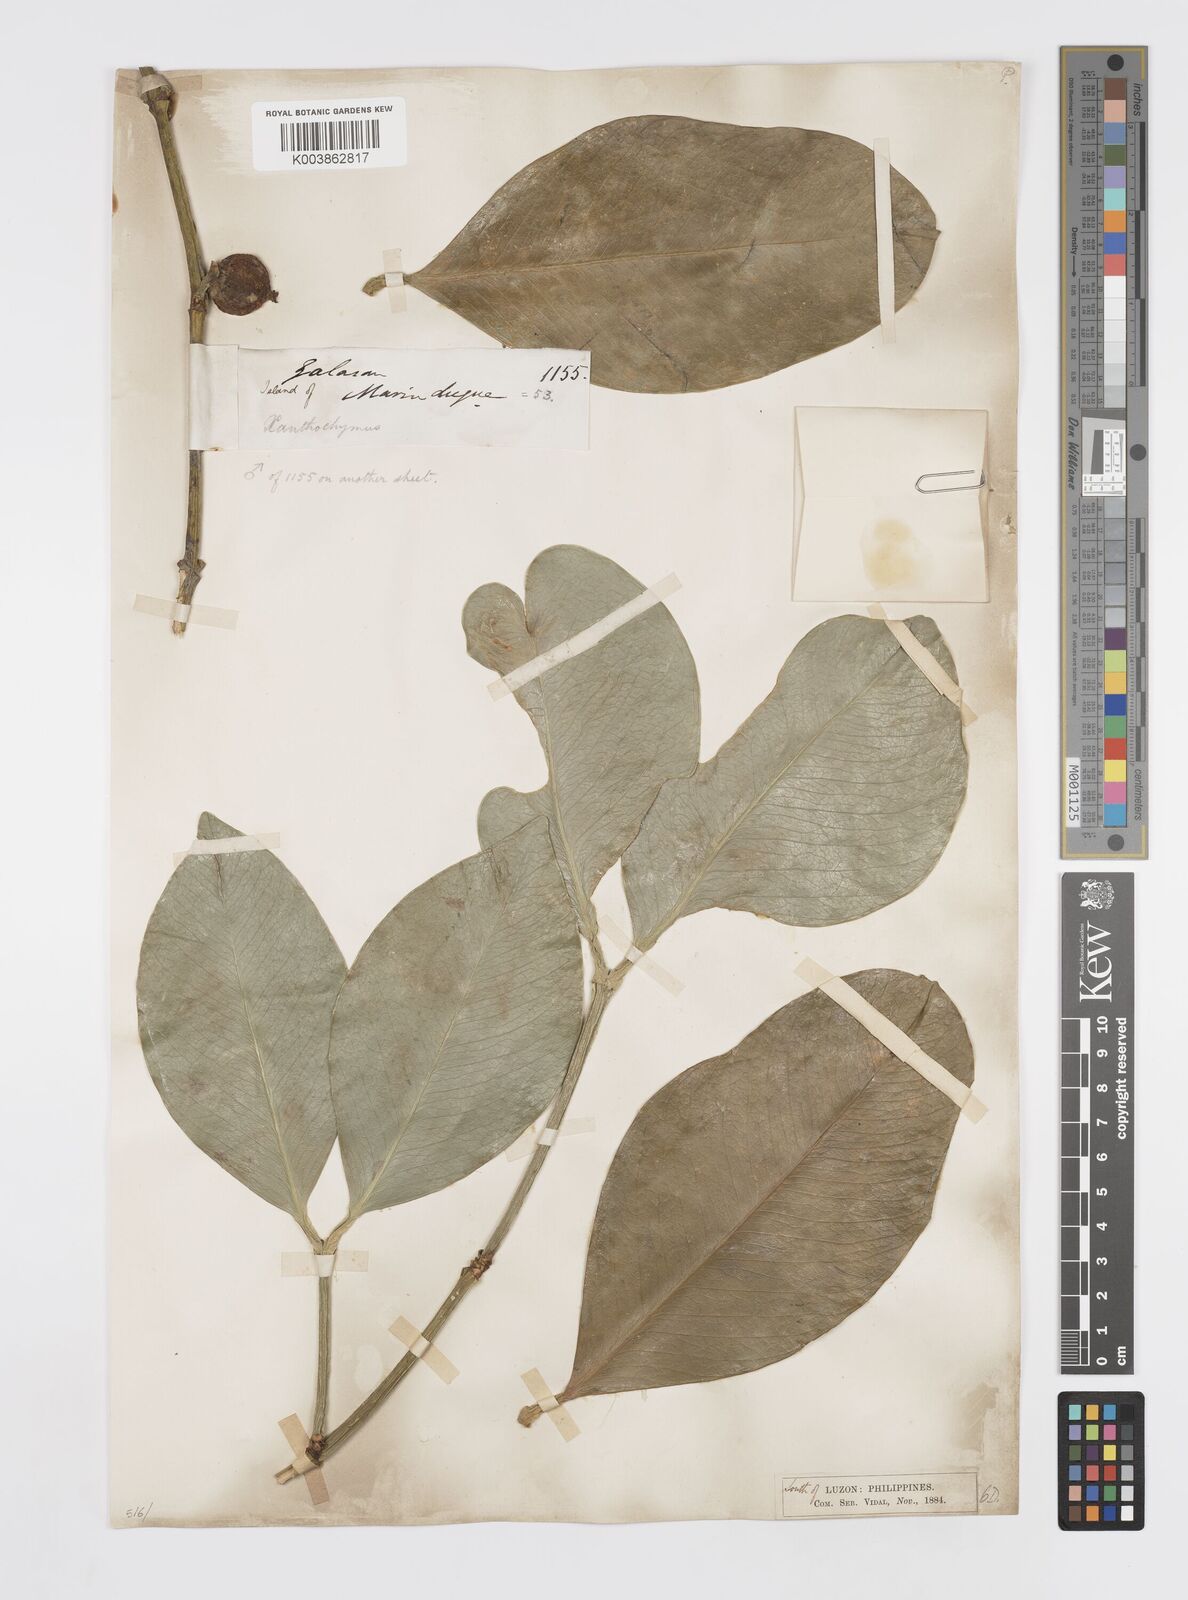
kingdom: Plantae
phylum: Tracheophyta
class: Magnoliopsida
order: Malpighiales
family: Clusiaceae
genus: Garcinia
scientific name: Garcinia
